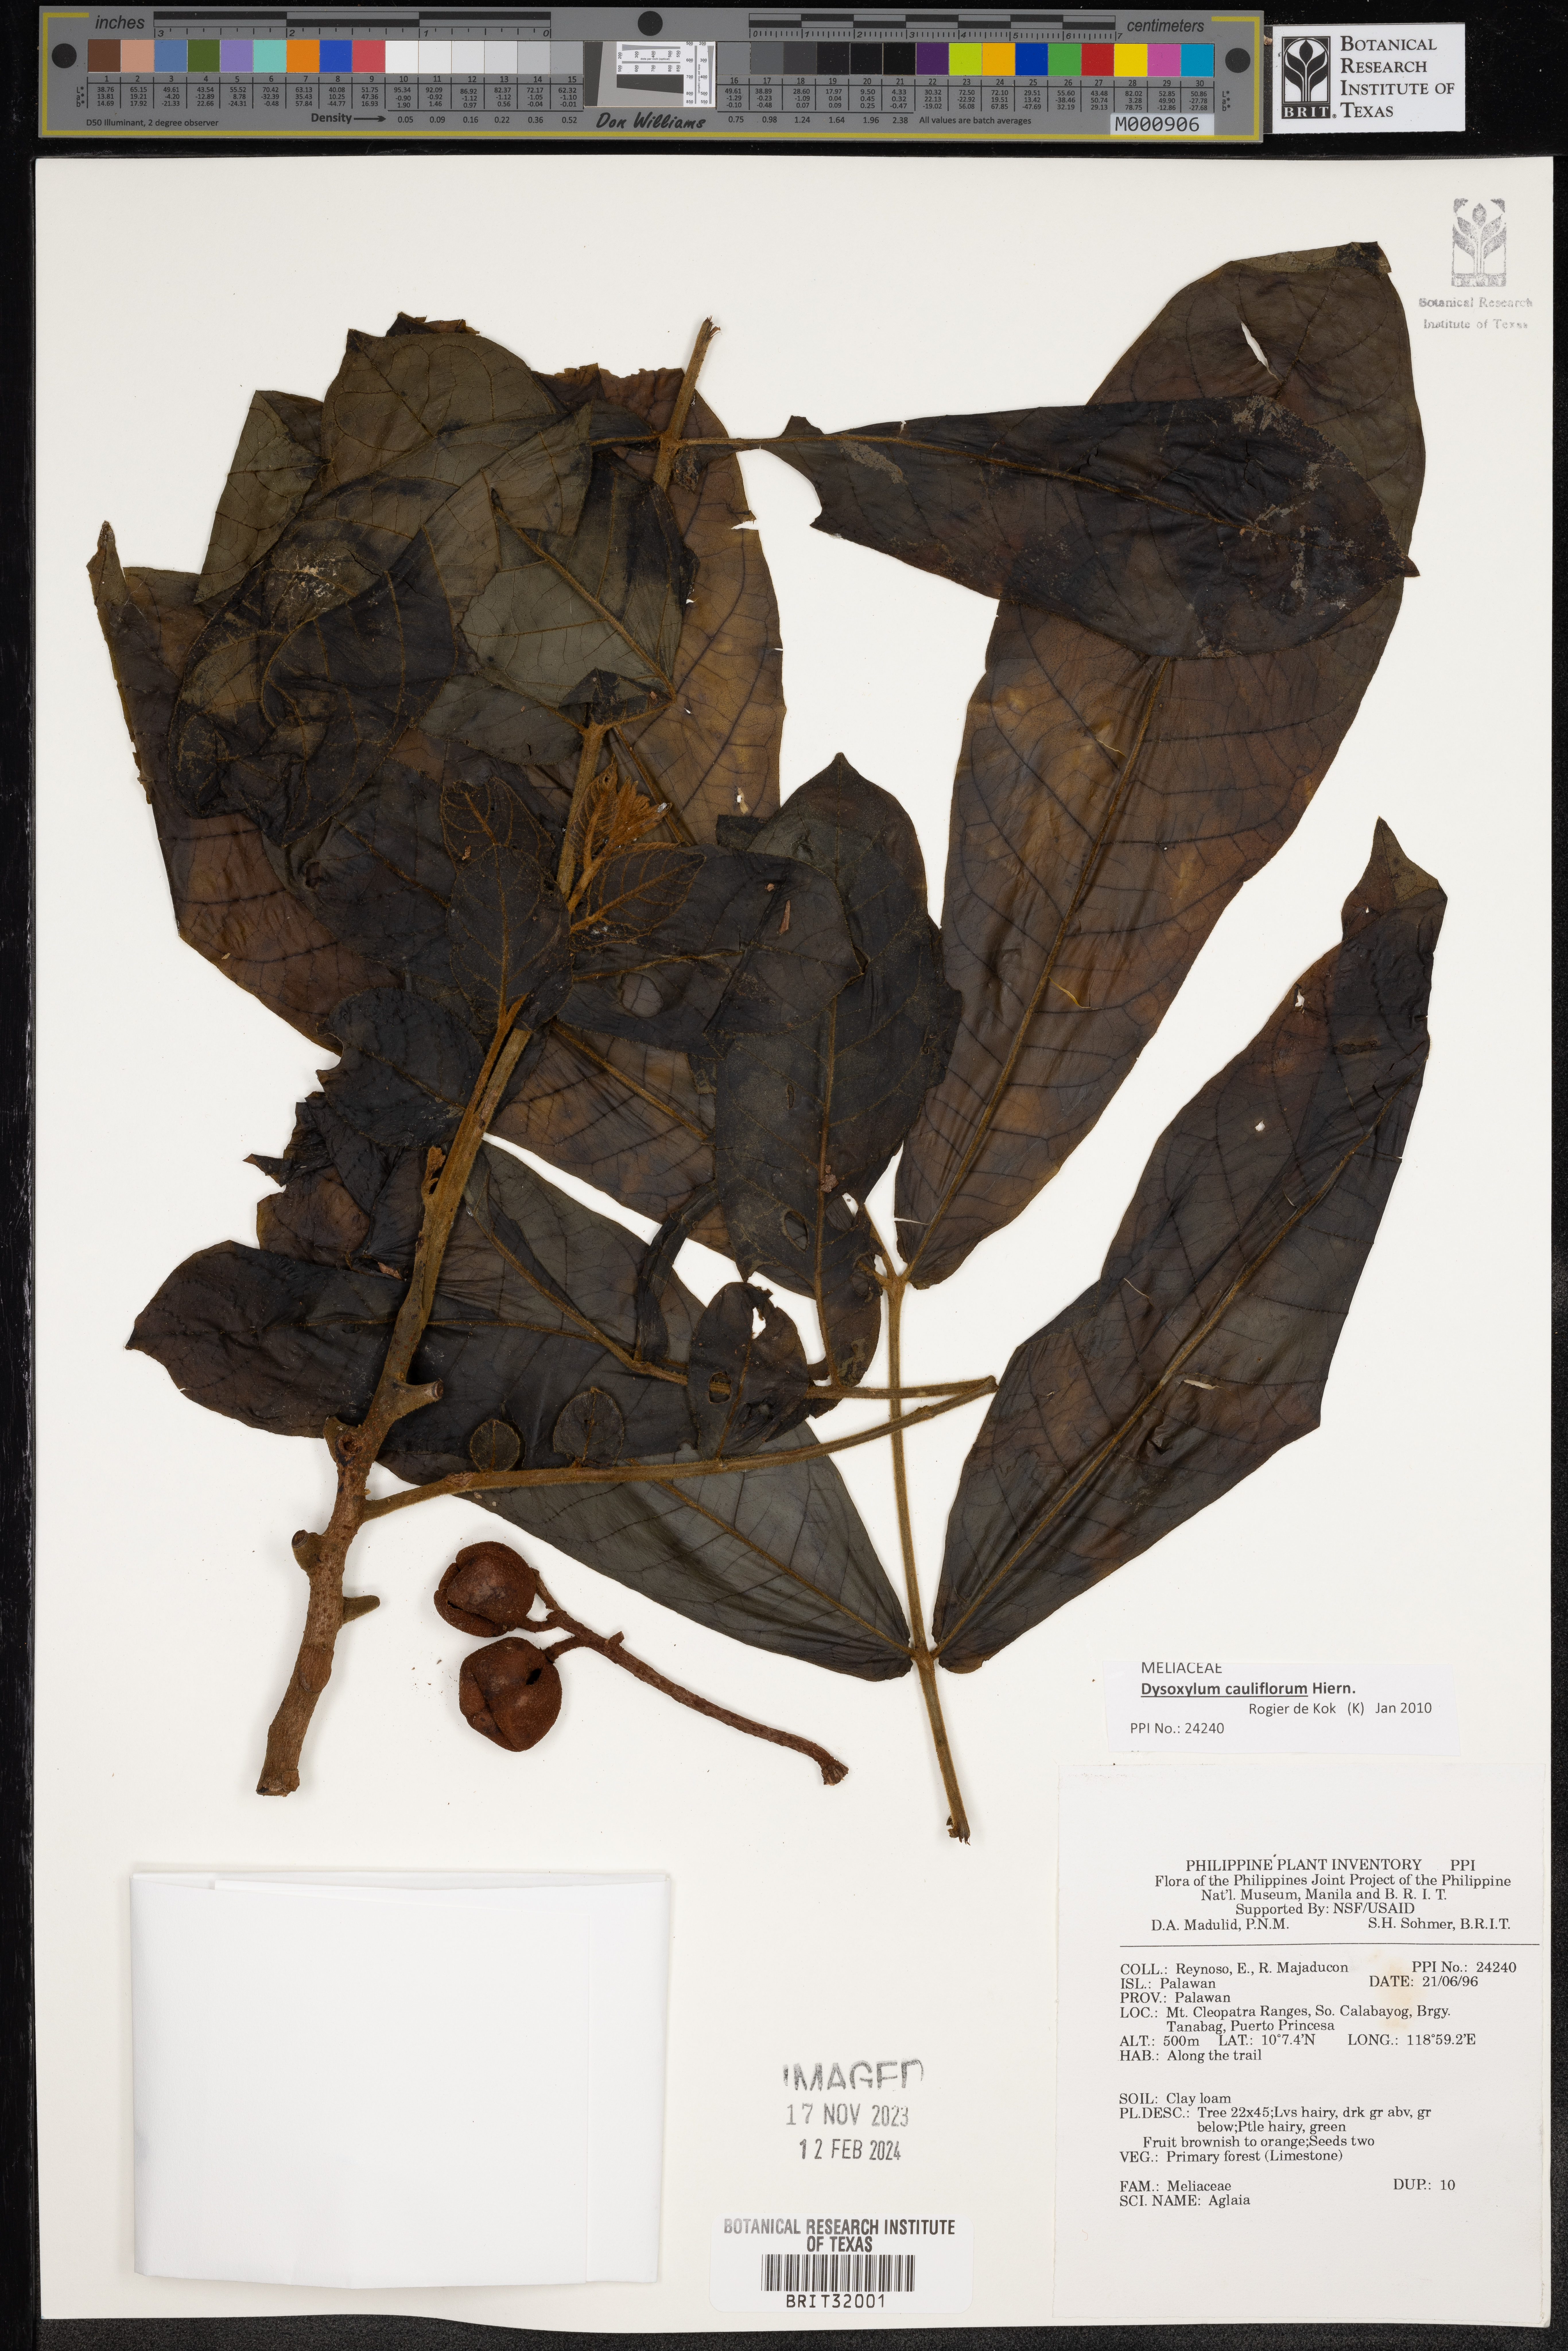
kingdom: Plantae
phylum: Tracheophyta
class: Magnoliopsida
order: Sapindales
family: Meliaceae
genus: Aglaia
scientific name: Aglaia
